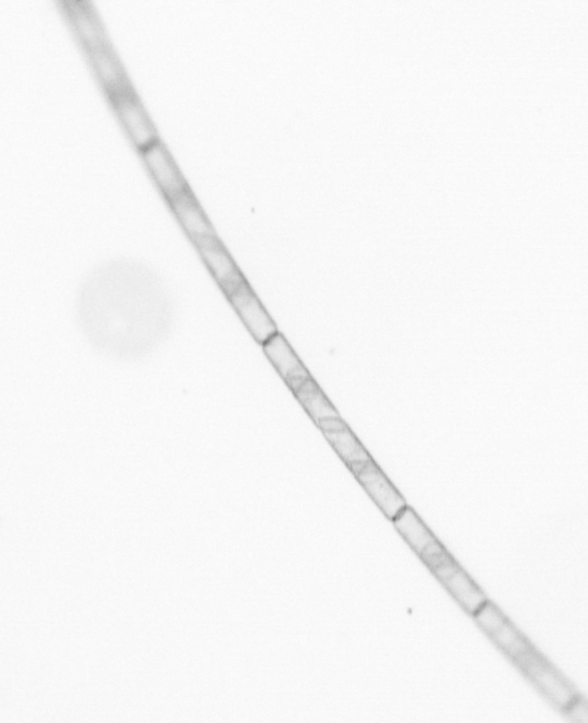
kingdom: Chromista
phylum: Ochrophyta
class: Bacillariophyceae
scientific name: Bacillariophyceae
